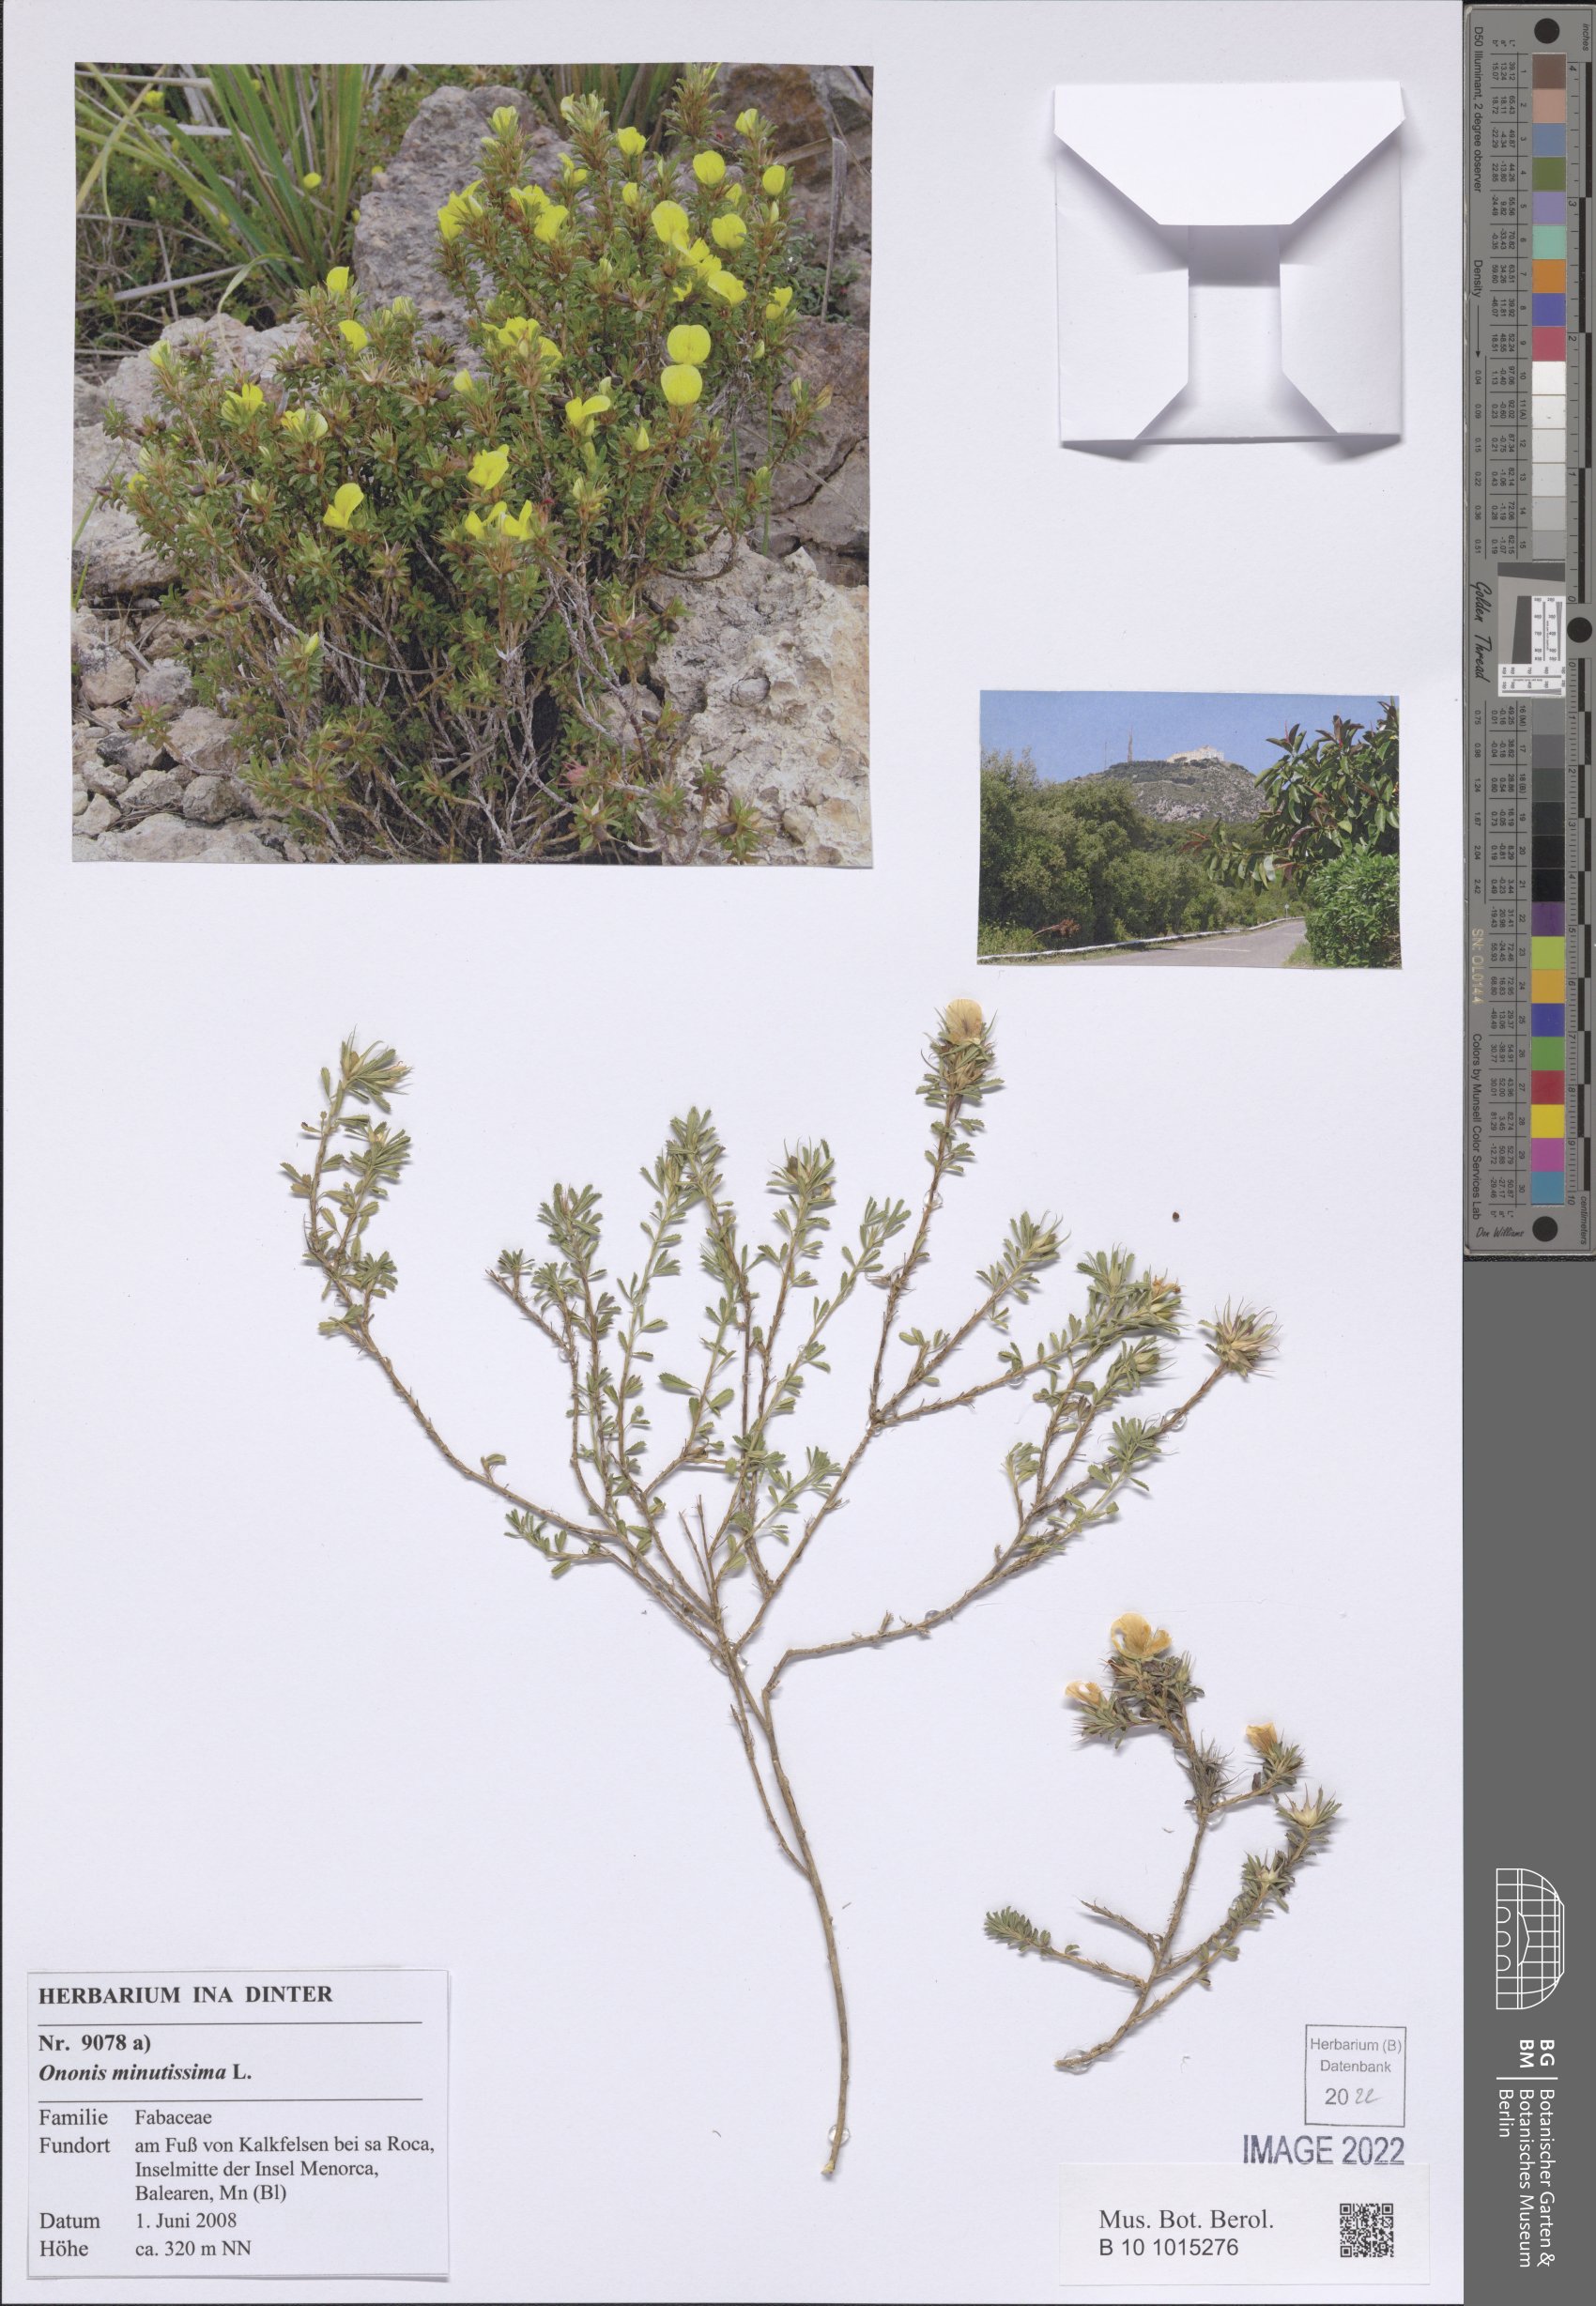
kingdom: Plantae
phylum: Tracheophyta
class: Magnoliopsida
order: Fabales
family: Fabaceae
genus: Ononis
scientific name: Ononis minutissima
